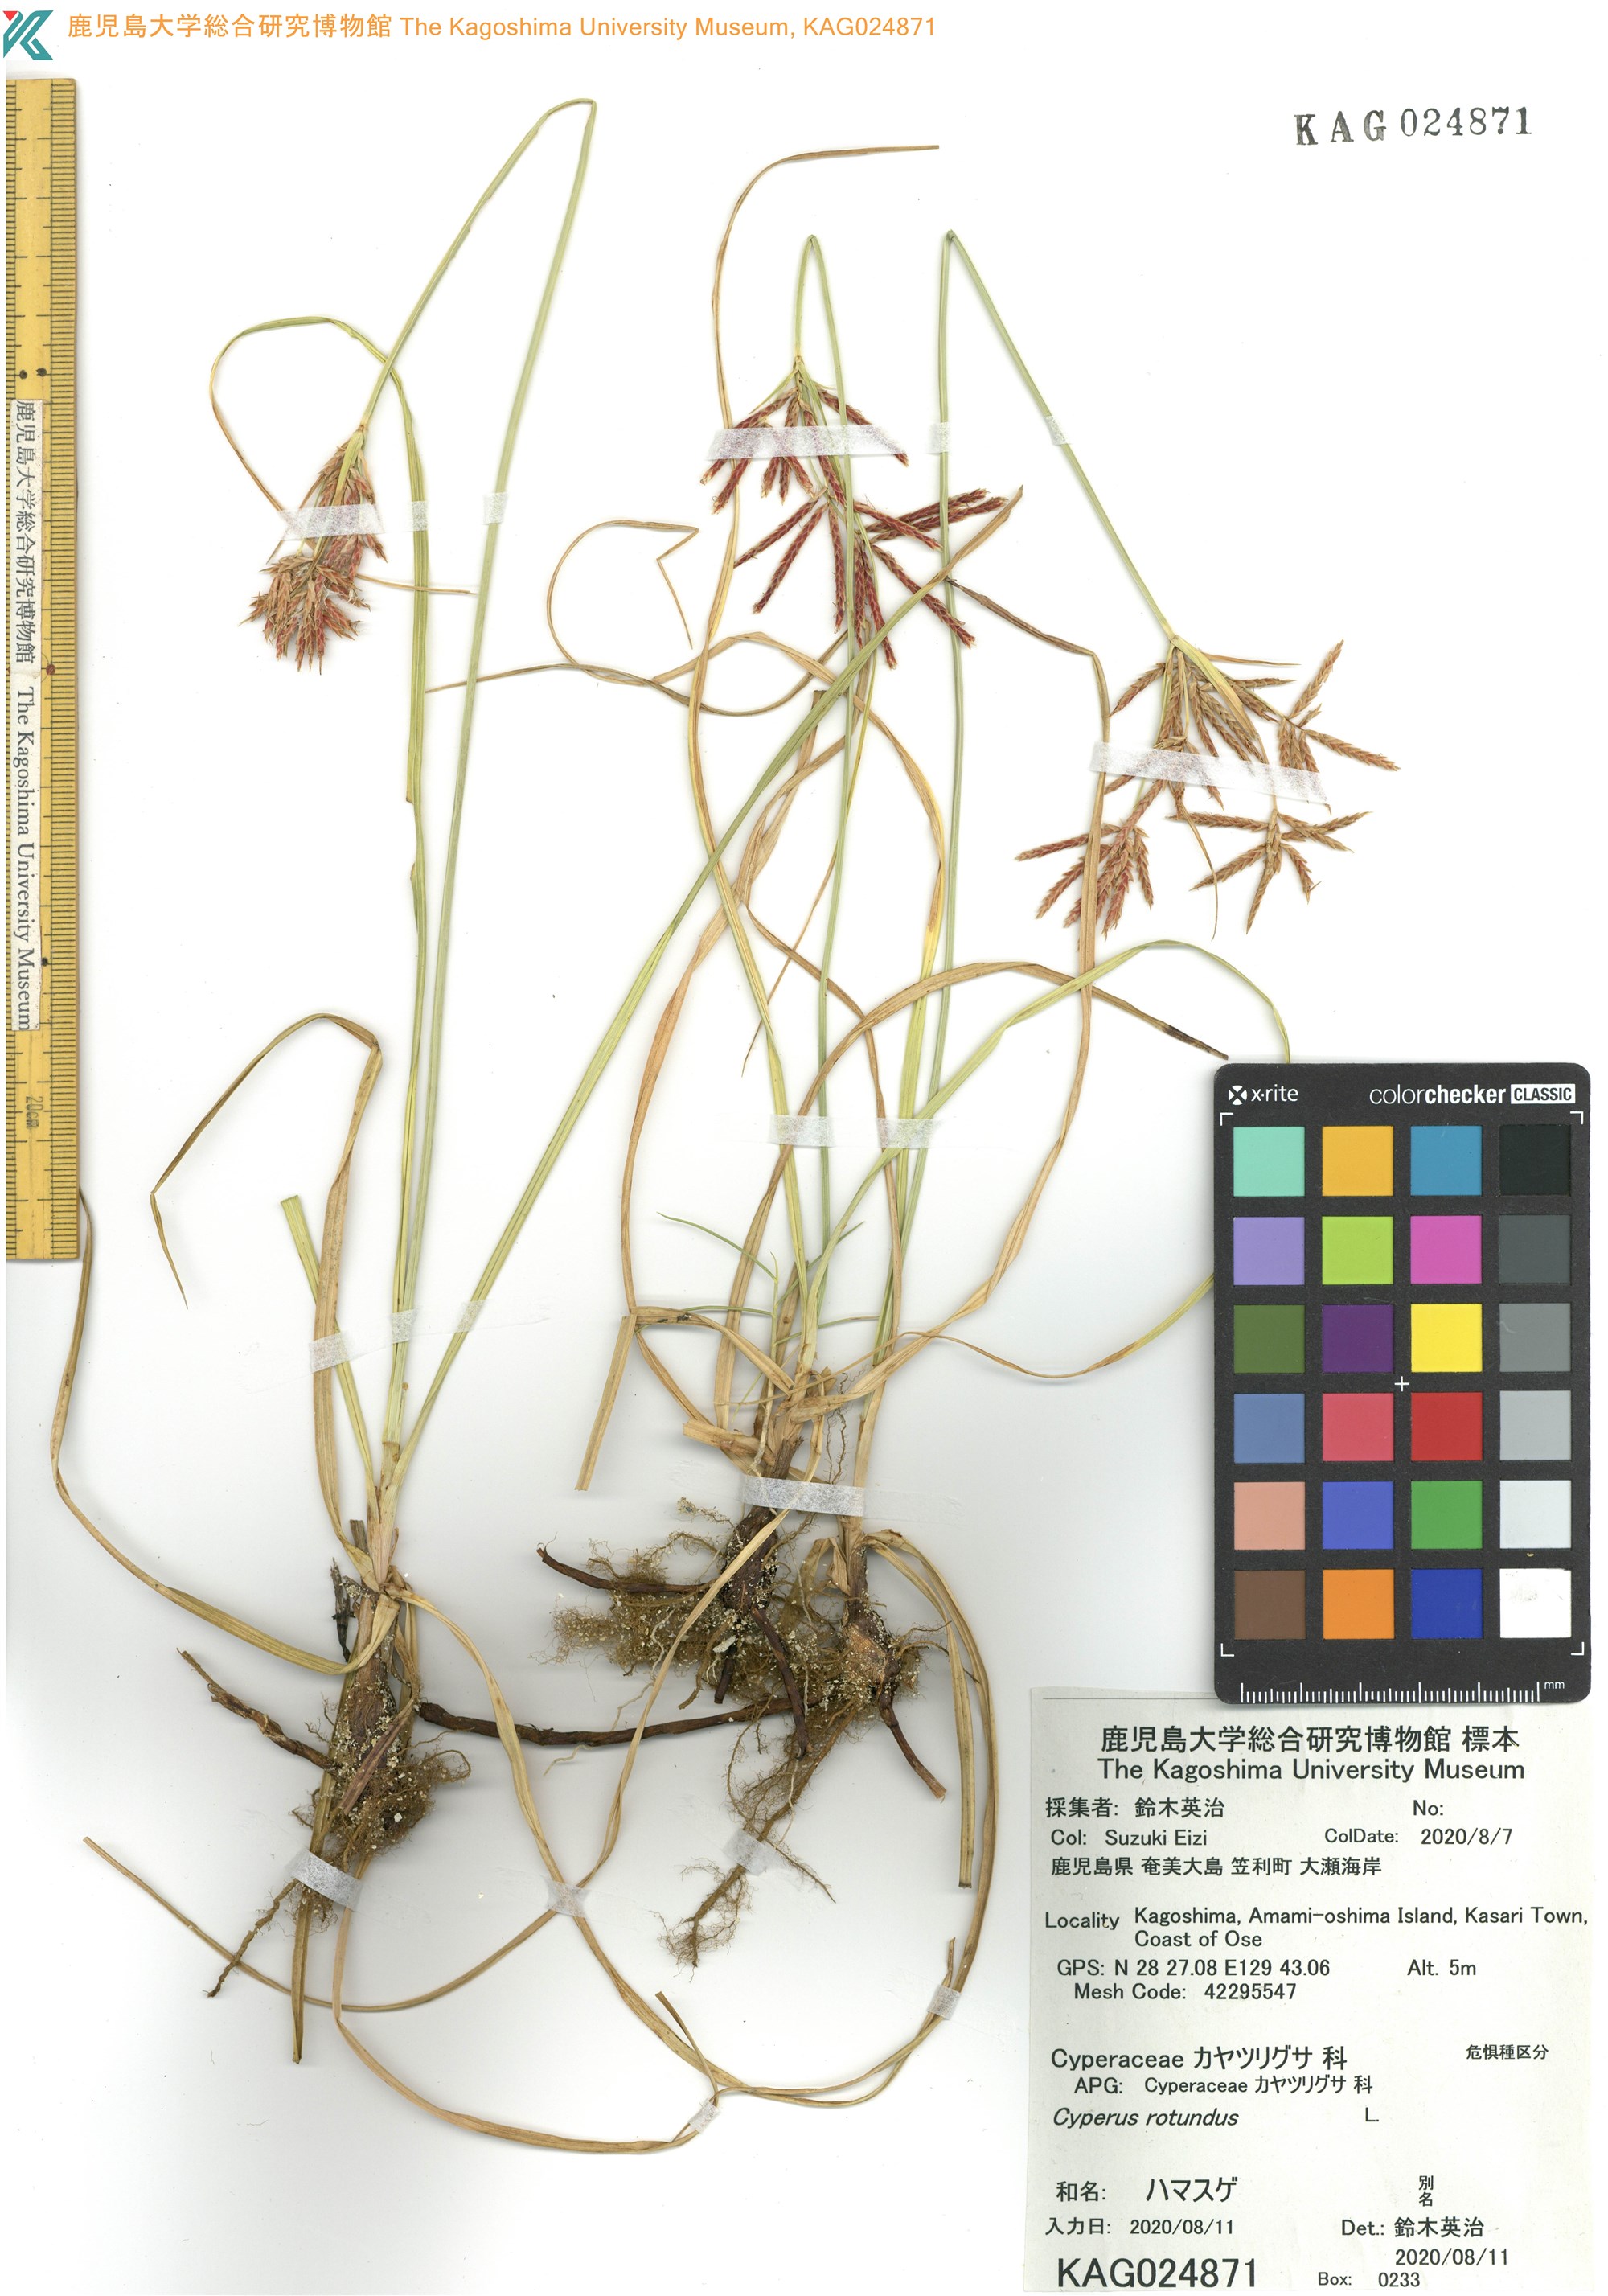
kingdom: Plantae
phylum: Tracheophyta
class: Liliopsida
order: Poales
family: Cyperaceae
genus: Cyperus
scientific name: Cyperus rotundus
